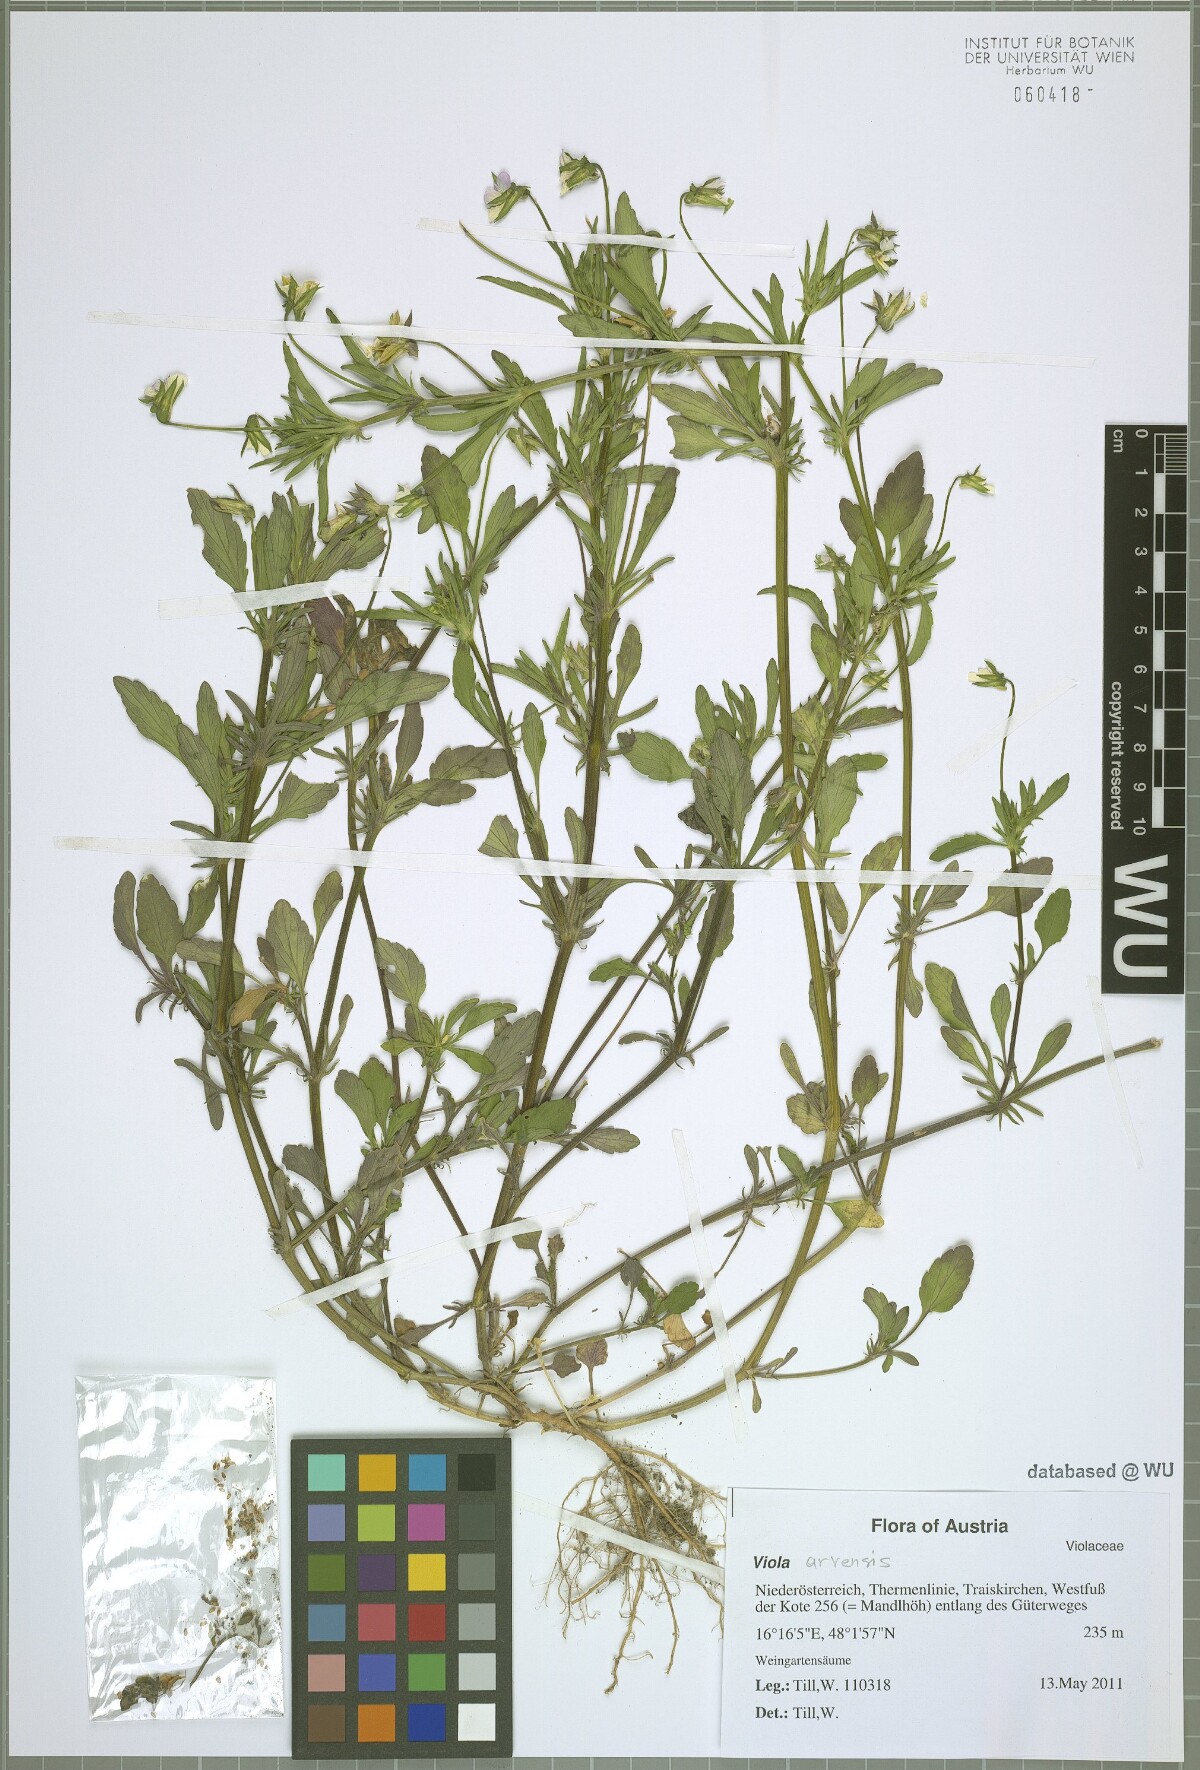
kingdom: Plantae
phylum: Tracheophyta
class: Magnoliopsida
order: Malpighiales
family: Violaceae
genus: Viola
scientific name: Viola arvensis
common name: Field pansy
